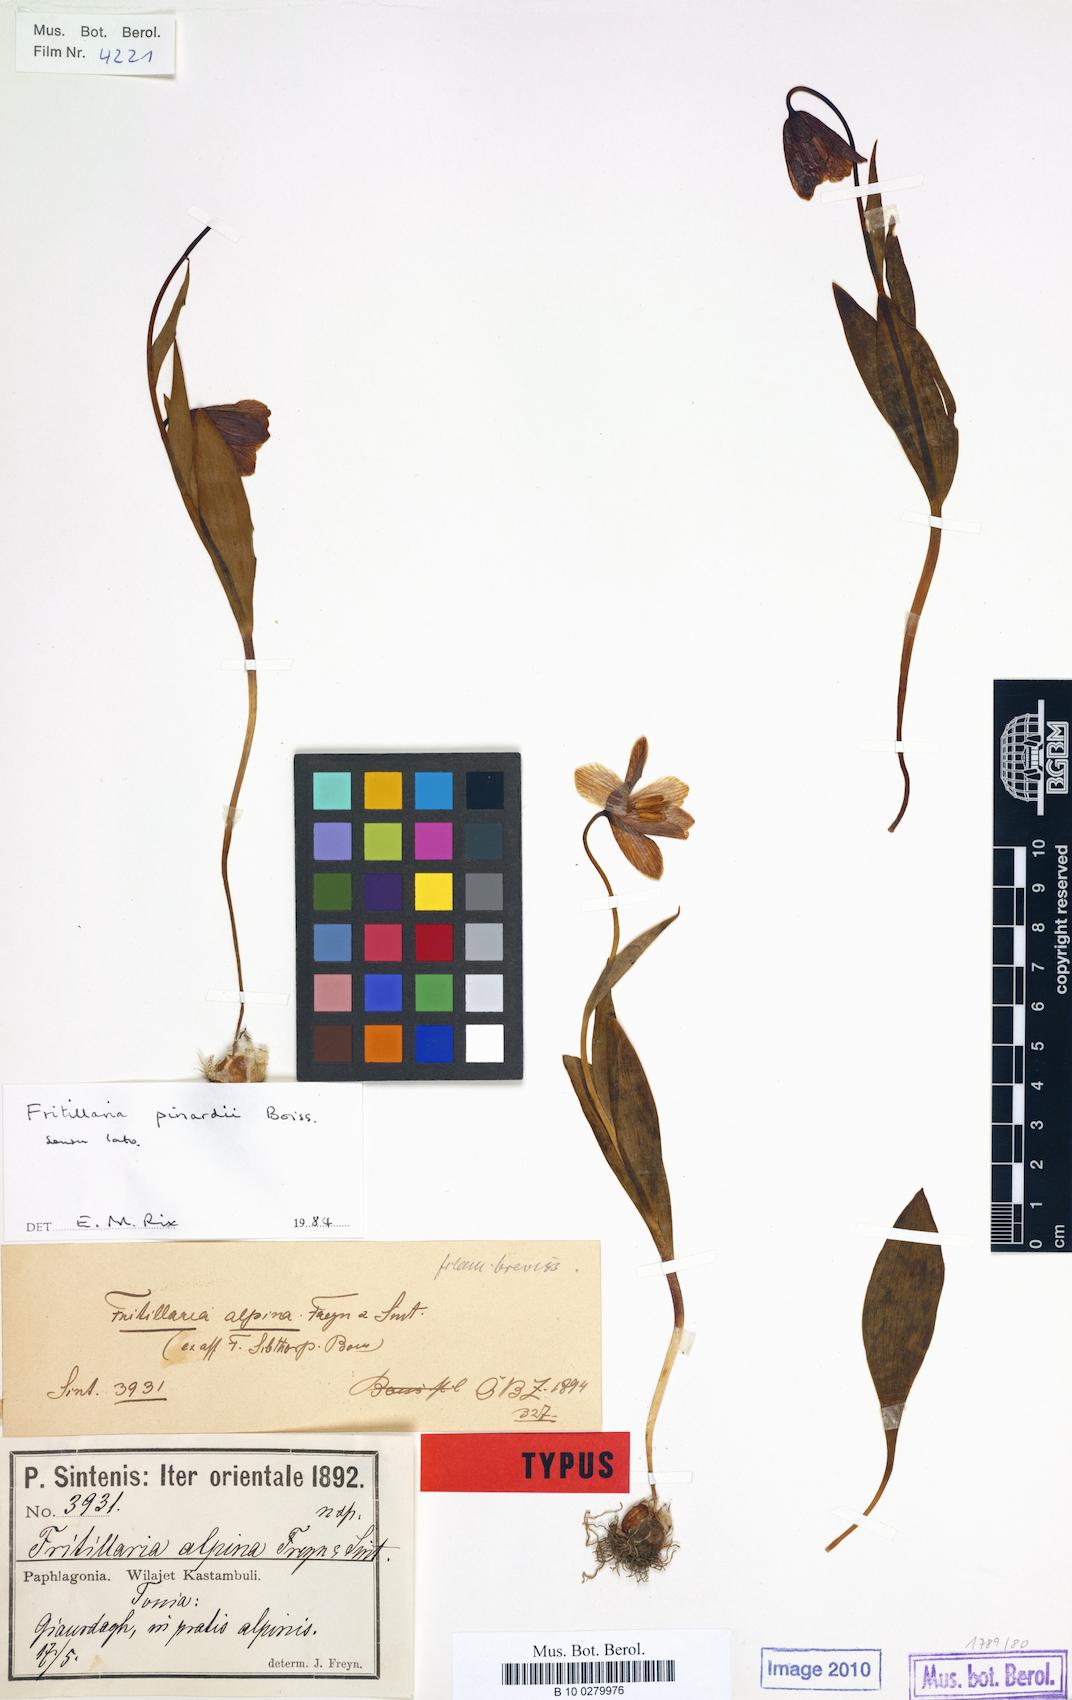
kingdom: Plantae
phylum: Tracheophyta
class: Liliopsida
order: Liliales
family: Liliaceae
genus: Fritillaria
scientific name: Fritillaria pinardii
